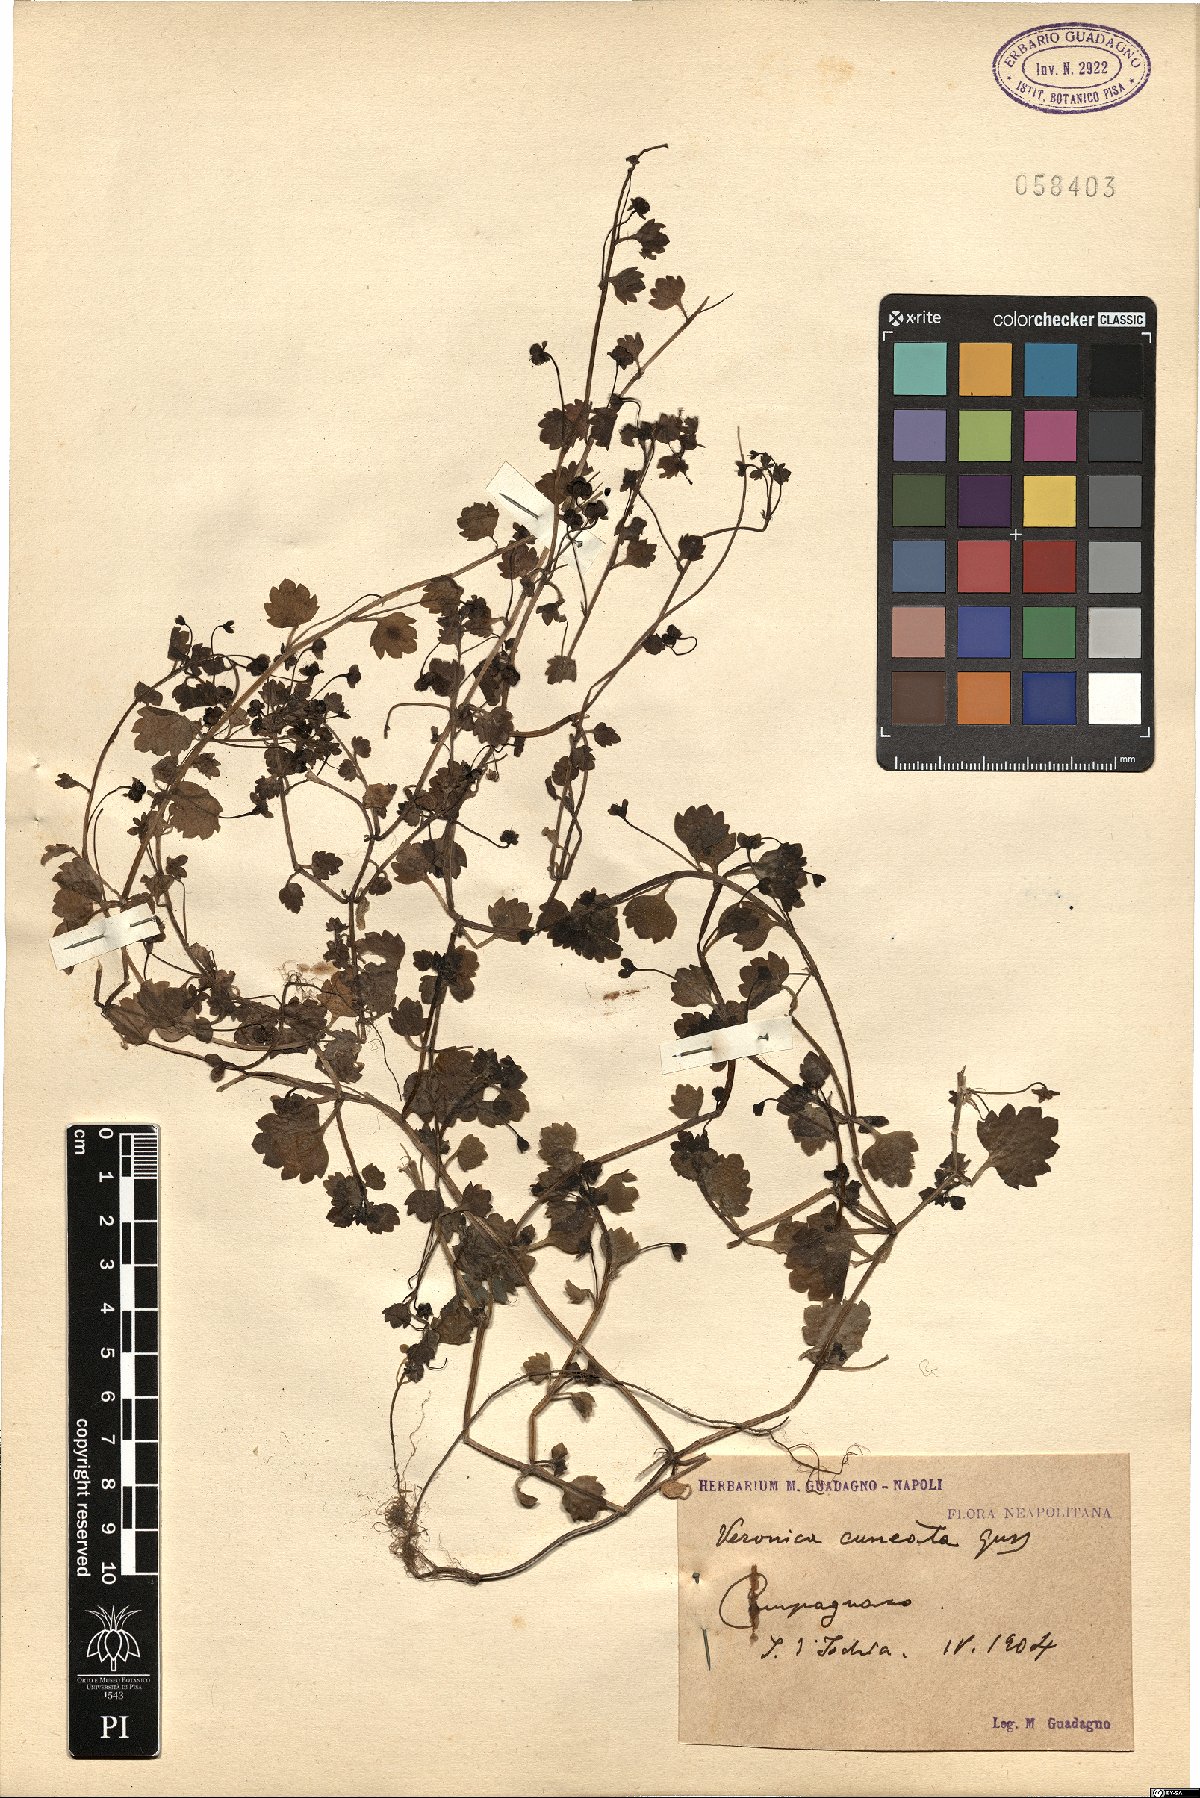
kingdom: Plantae
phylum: Tracheophyta
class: Magnoliopsida
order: Lamiales
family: Plantaginaceae
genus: Veronica
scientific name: Veronica cymbalaria
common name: Pale speedwell
